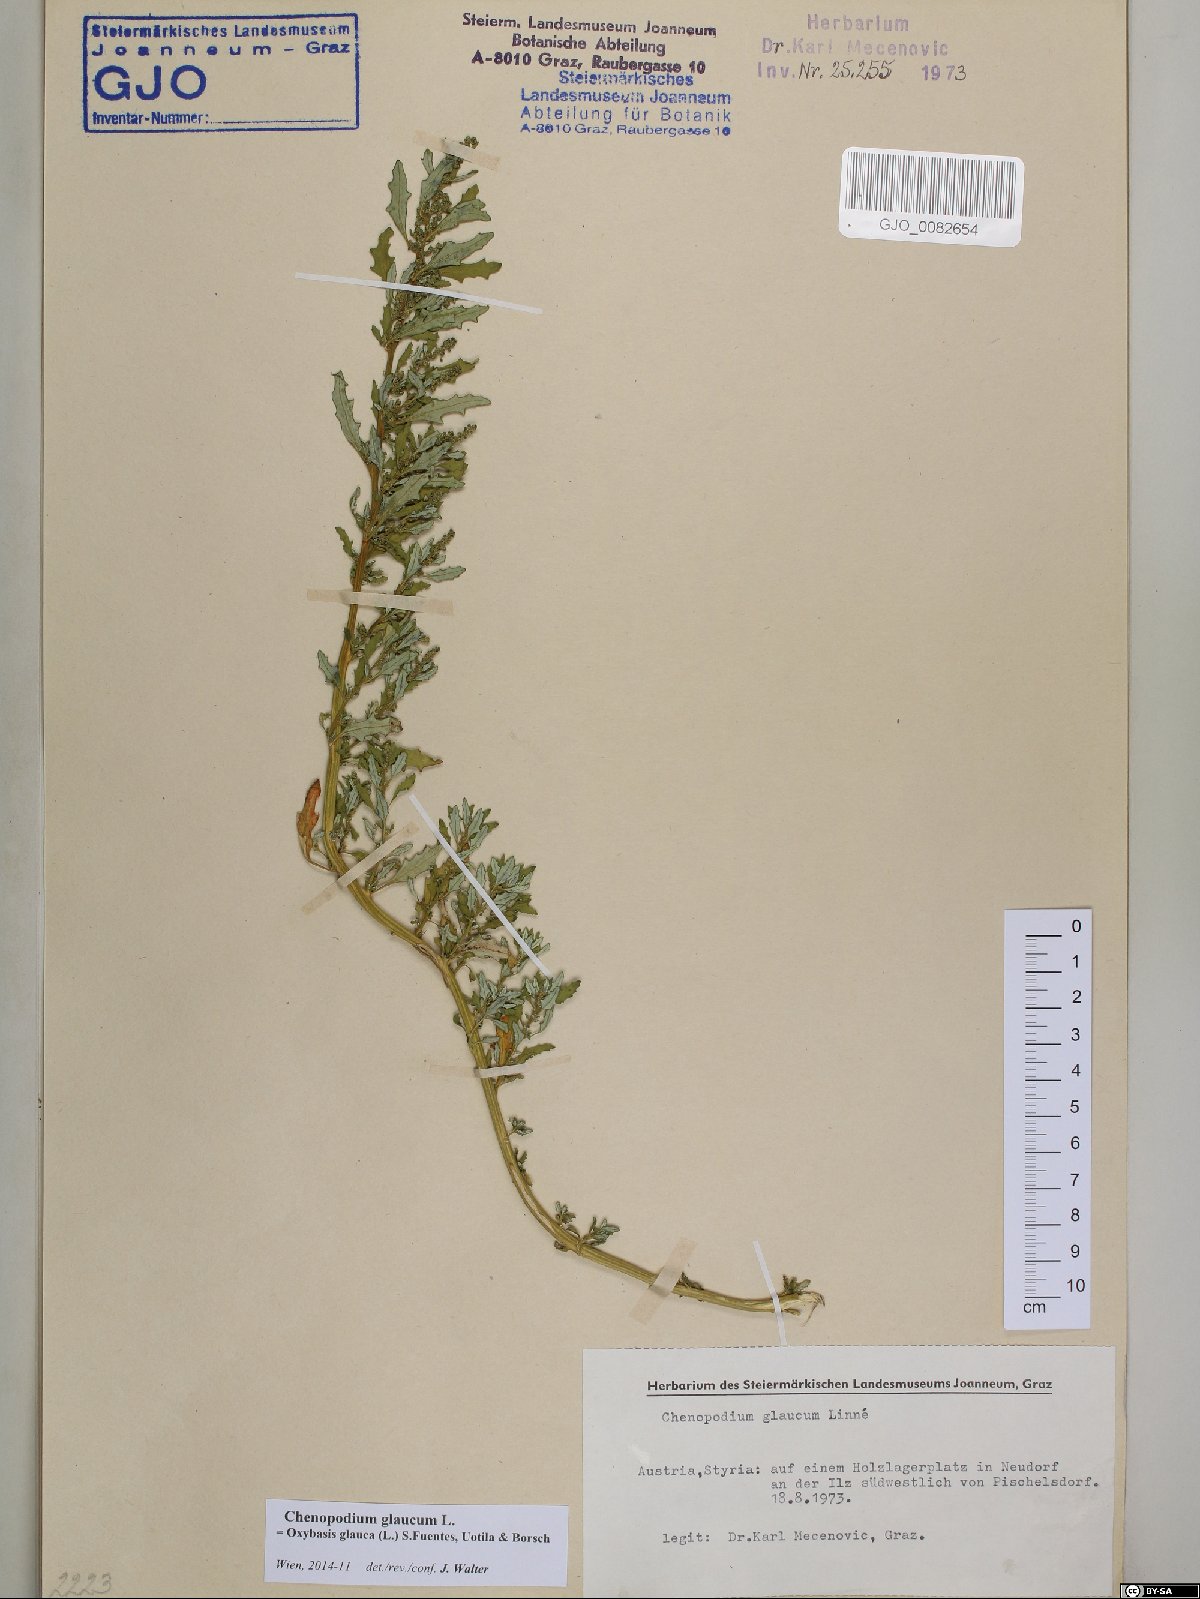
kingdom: Plantae
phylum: Tracheophyta
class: Magnoliopsida
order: Caryophyllales
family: Amaranthaceae
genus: Oxybasis
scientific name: Oxybasis glauca
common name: Glaucous goosefoot
